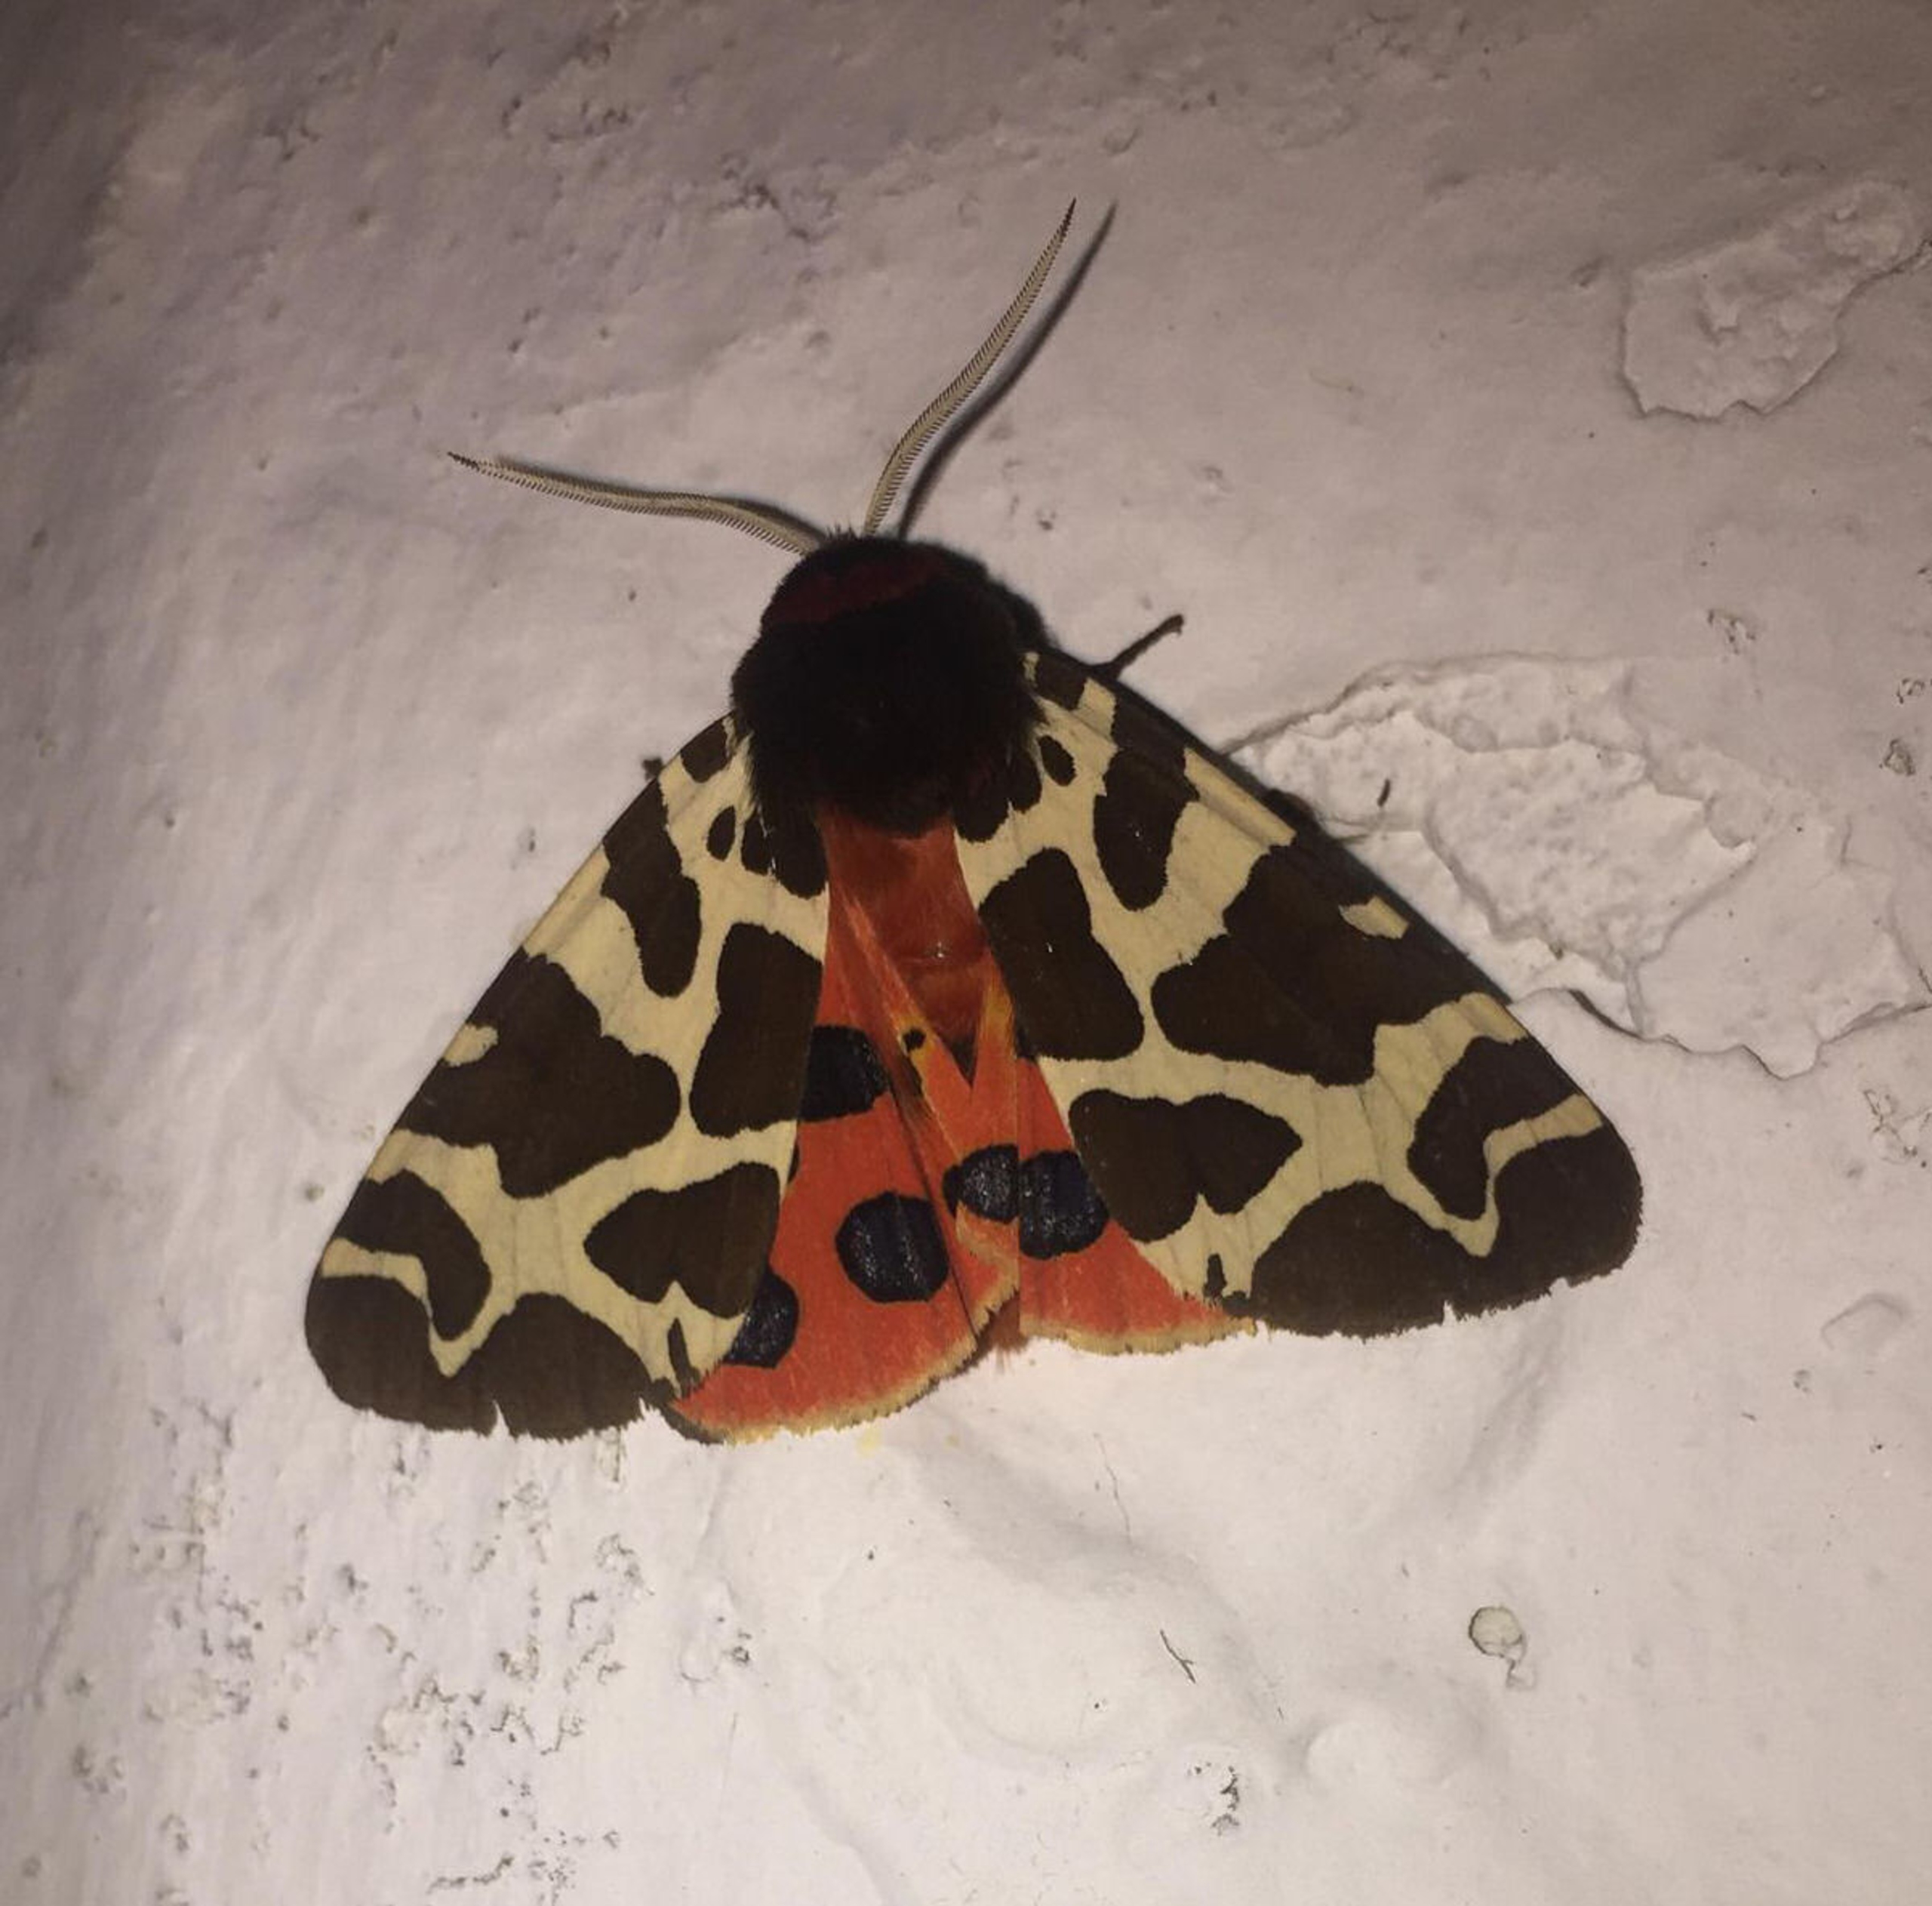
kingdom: Animalia
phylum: Arthropoda
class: Insecta
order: Lepidoptera
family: Erebidae
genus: Arctia
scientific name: Arctia caja
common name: Brun bjørn
